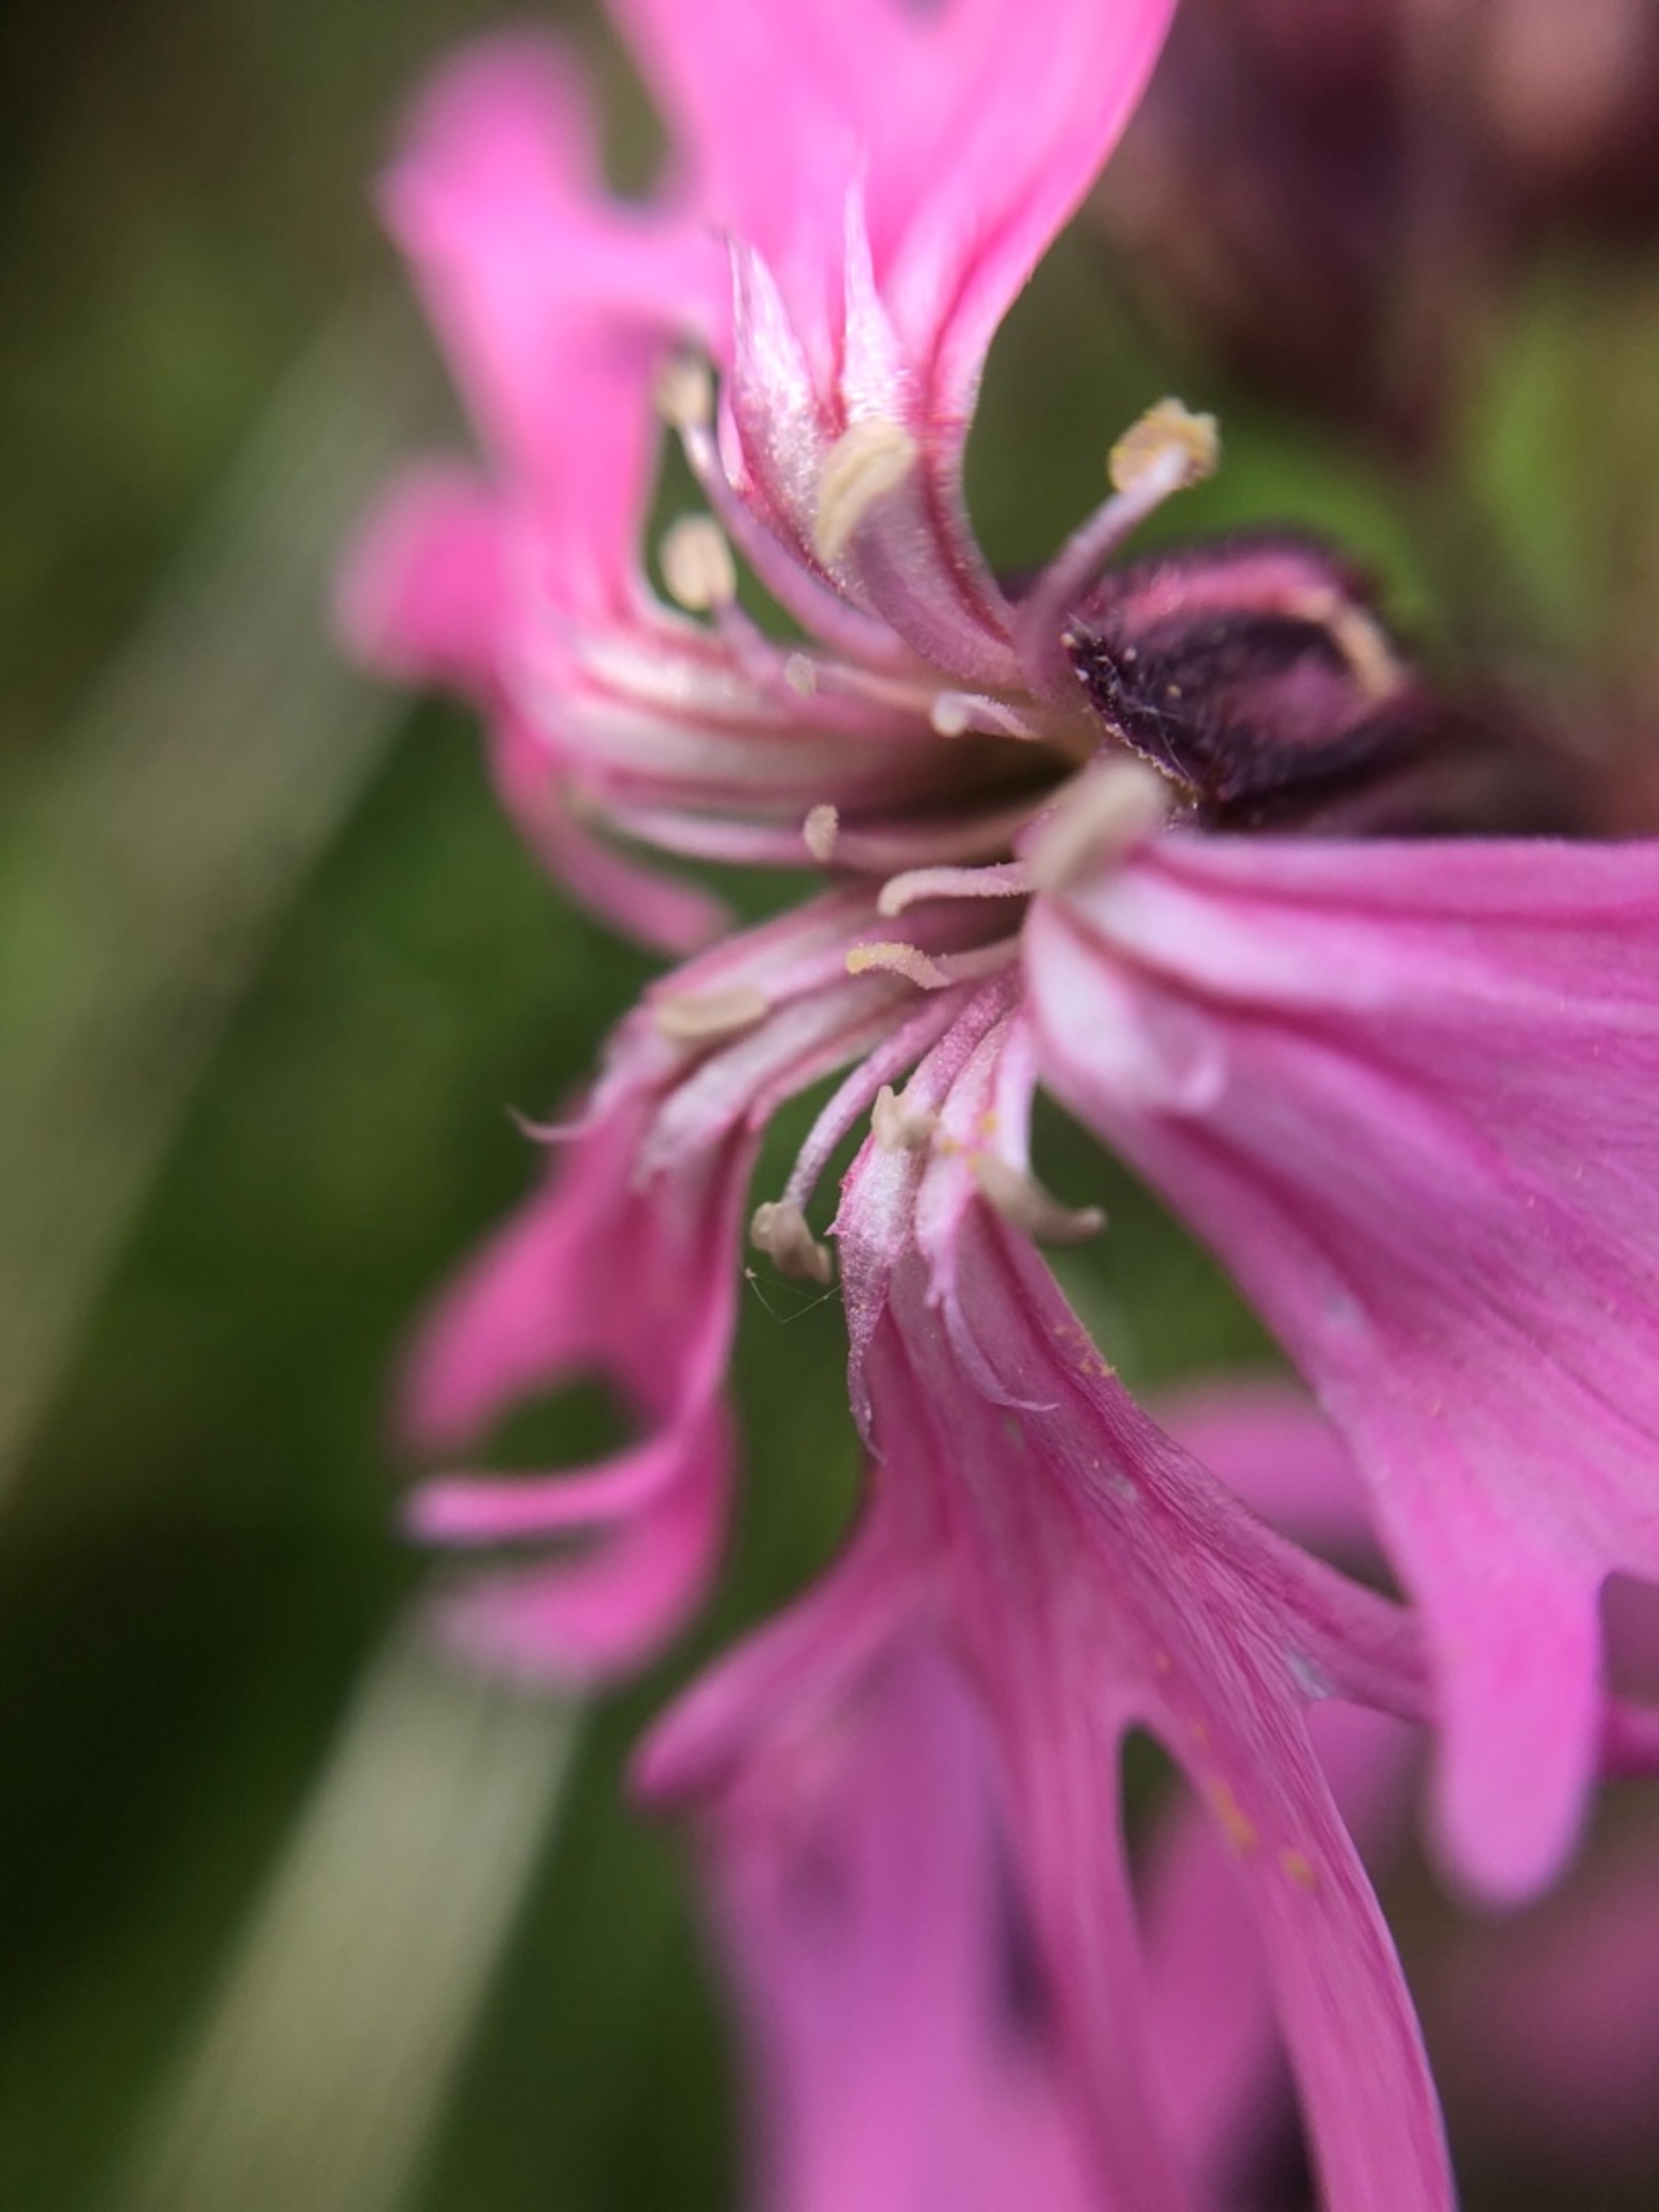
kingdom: Plantae
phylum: Tracheophyta
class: Magnoliopsida
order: Caryophyllales
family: Caryophyllaceae
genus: Silene
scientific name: Silene flos-cuculi
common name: Trævlekrone
